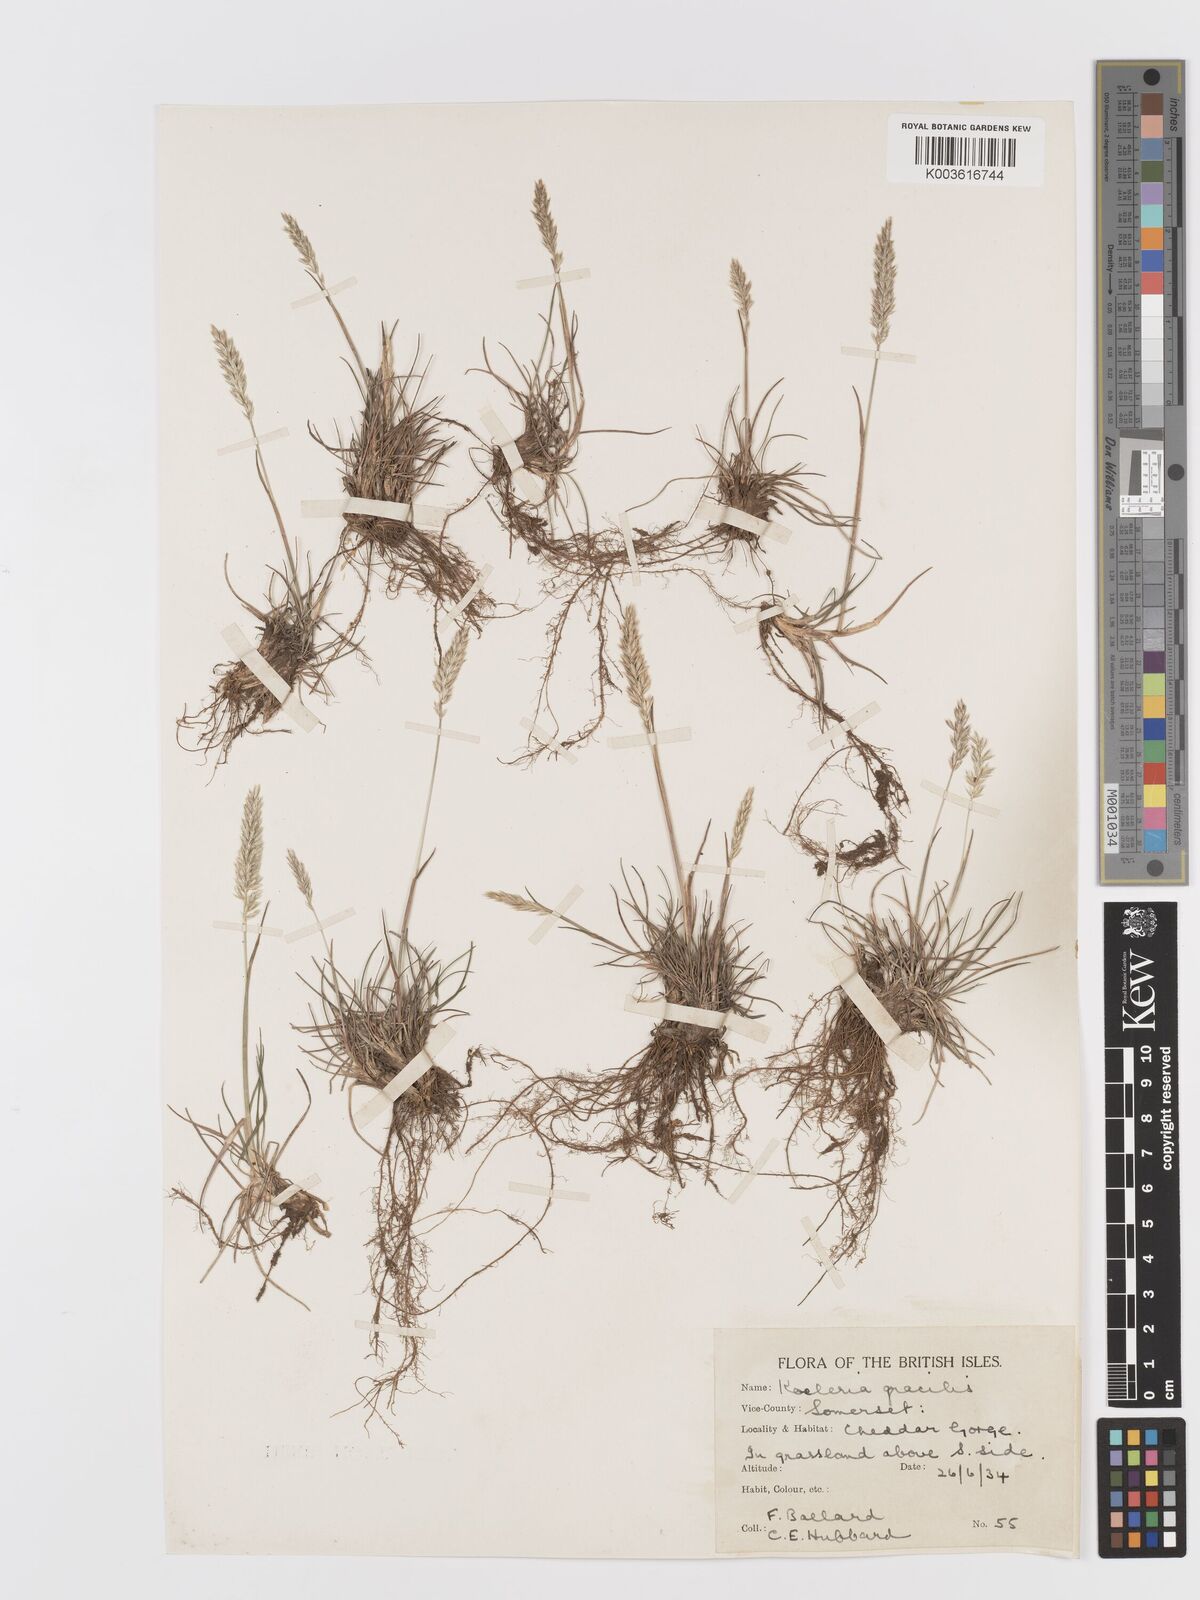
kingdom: Plantae
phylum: Tracheophyta
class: Liliopsida
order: Poales
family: Poaceae
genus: Koeleria
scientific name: Koeleria
